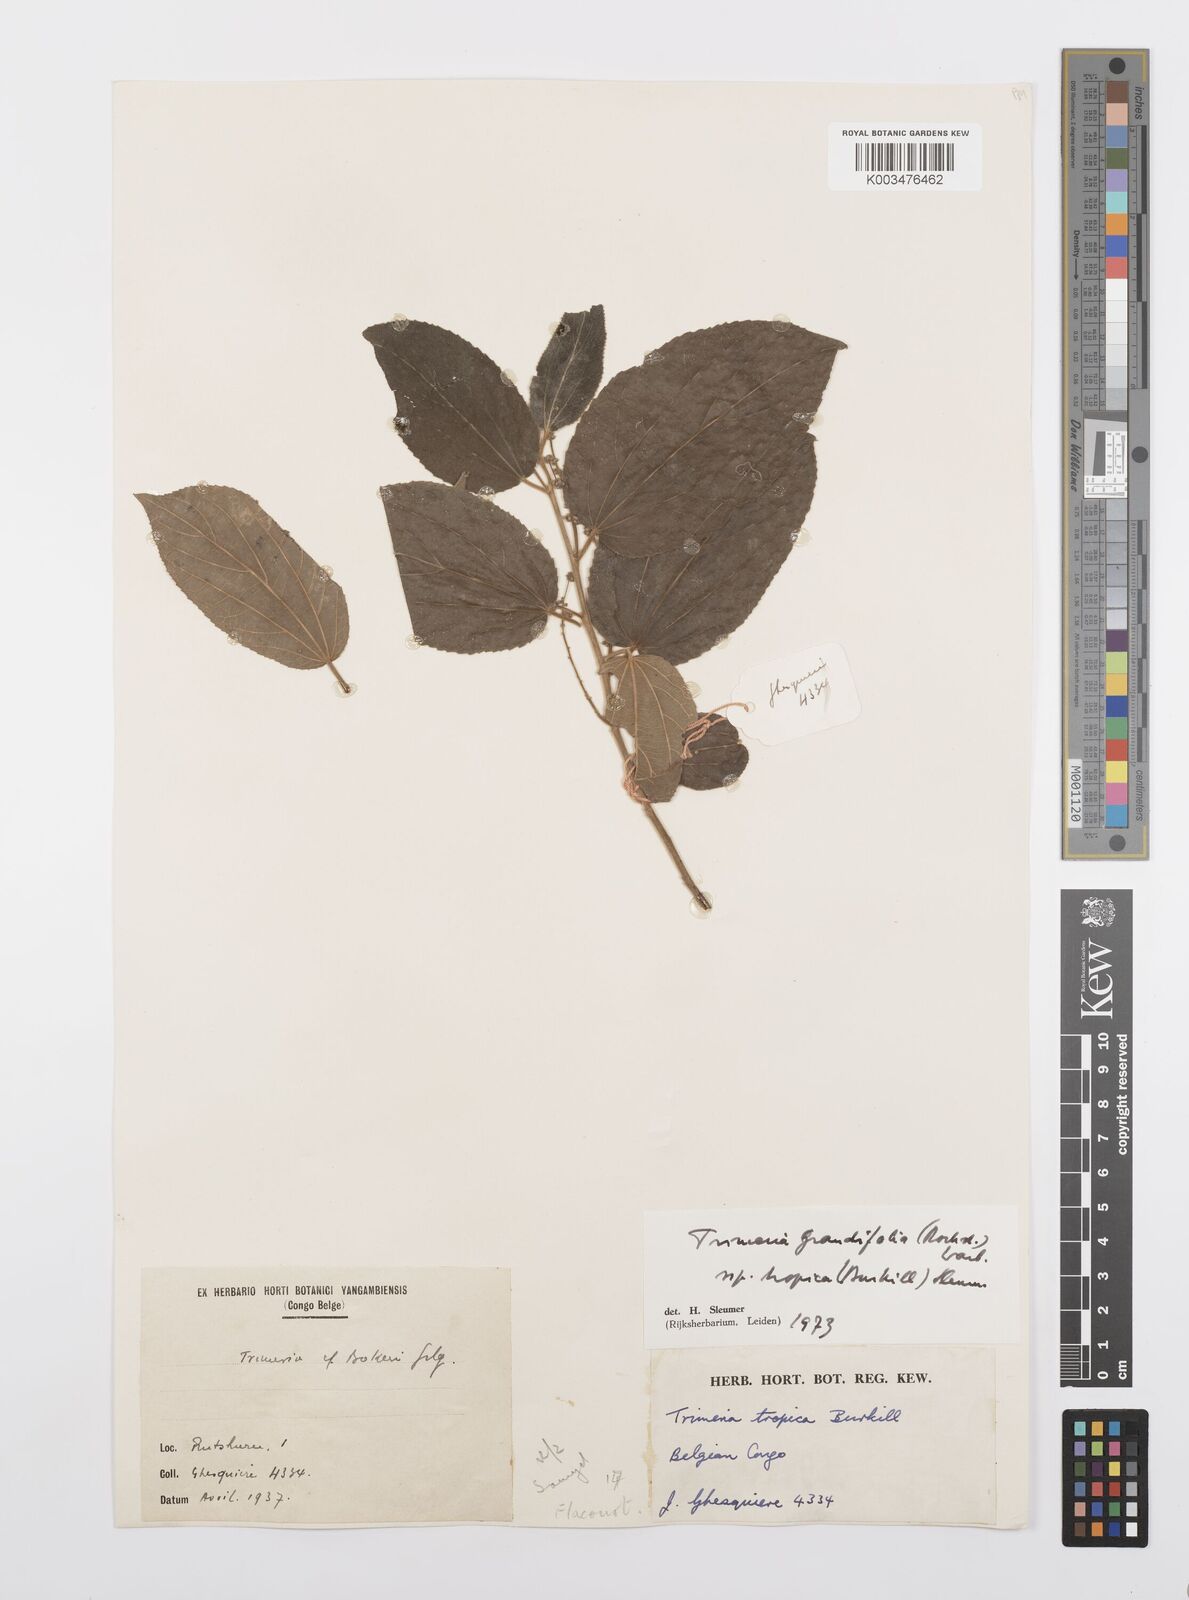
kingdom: Plantae
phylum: Tracheophyta
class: Magnoliopsida
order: Malpighiales
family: Salicaceae
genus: Trimeria
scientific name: Trimeria grandifolia
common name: Wild mulberry
